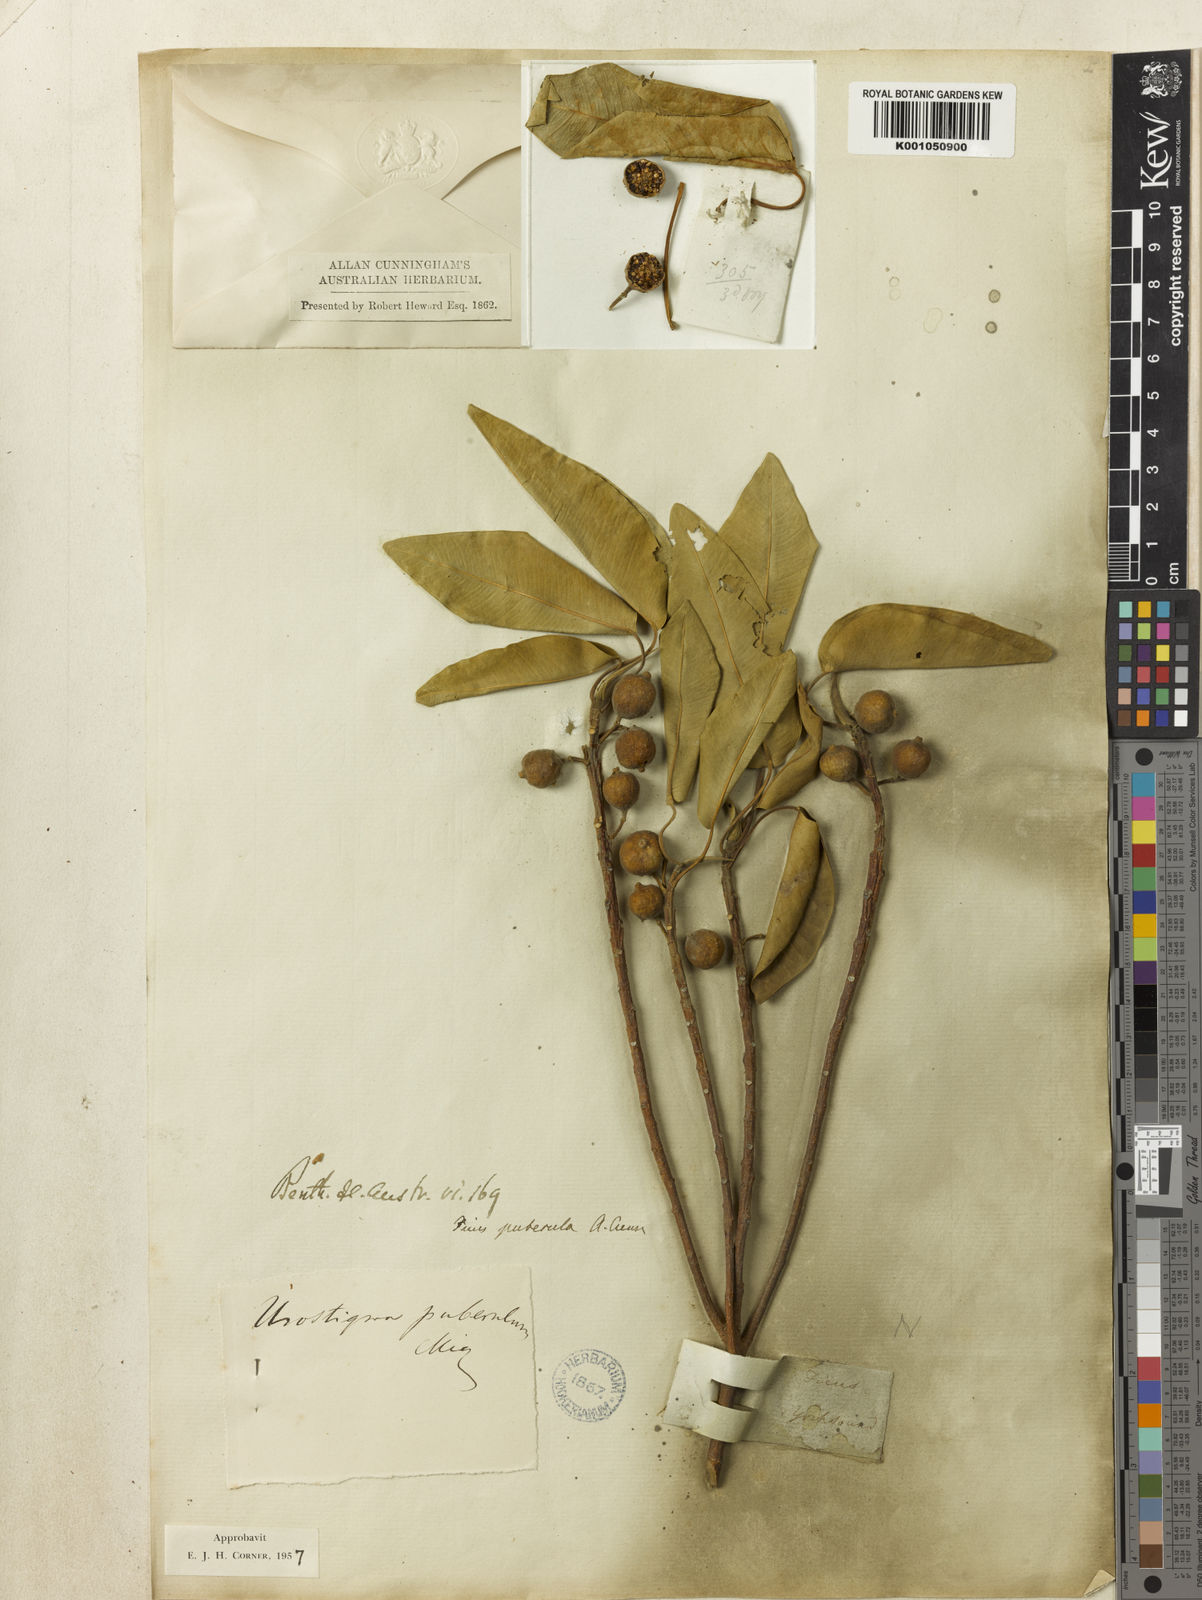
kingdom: Plantae
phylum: Tracheophyta
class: Magnoliopsida
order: Rosales
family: Moraceae
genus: Ficus
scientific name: Ficus subpuberula
